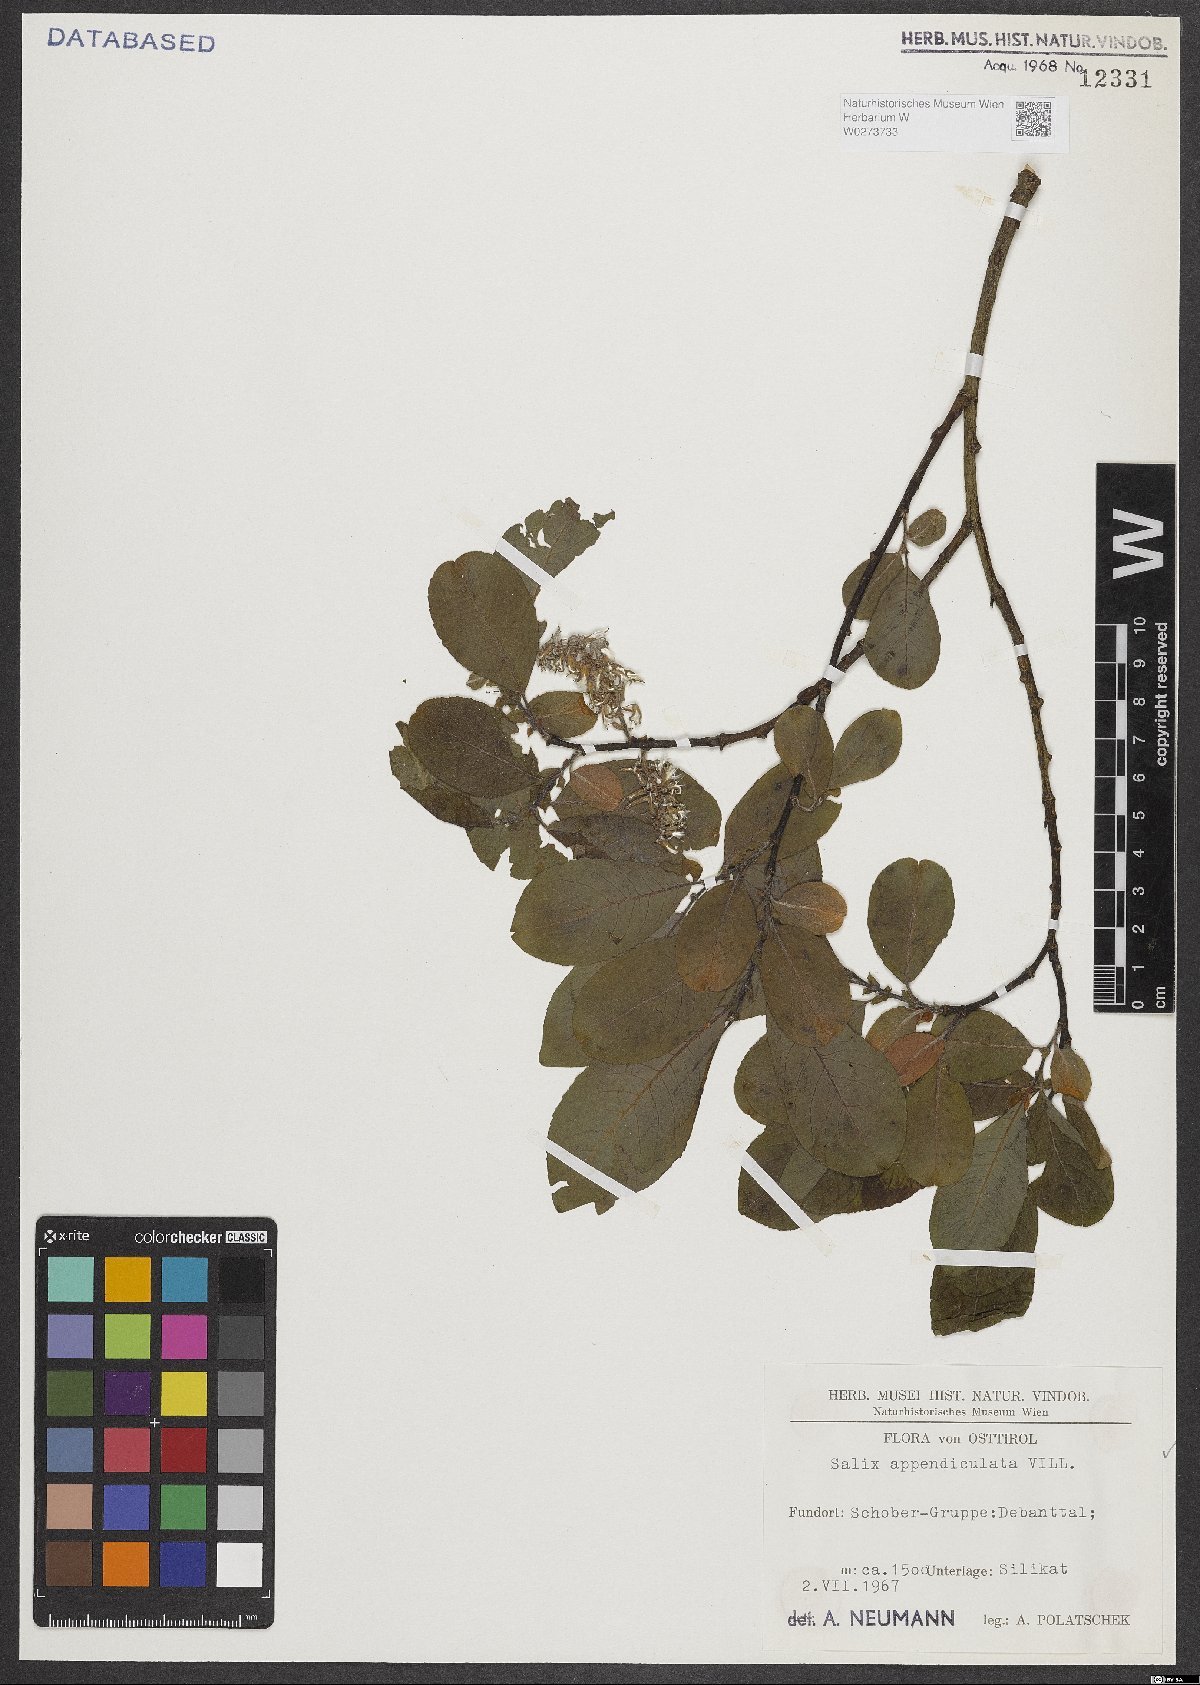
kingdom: Plantae
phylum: Tracheophyta
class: Magnoliopsida
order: Malpighiales
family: Salicaceae
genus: Salix
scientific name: Salix appendiculata
